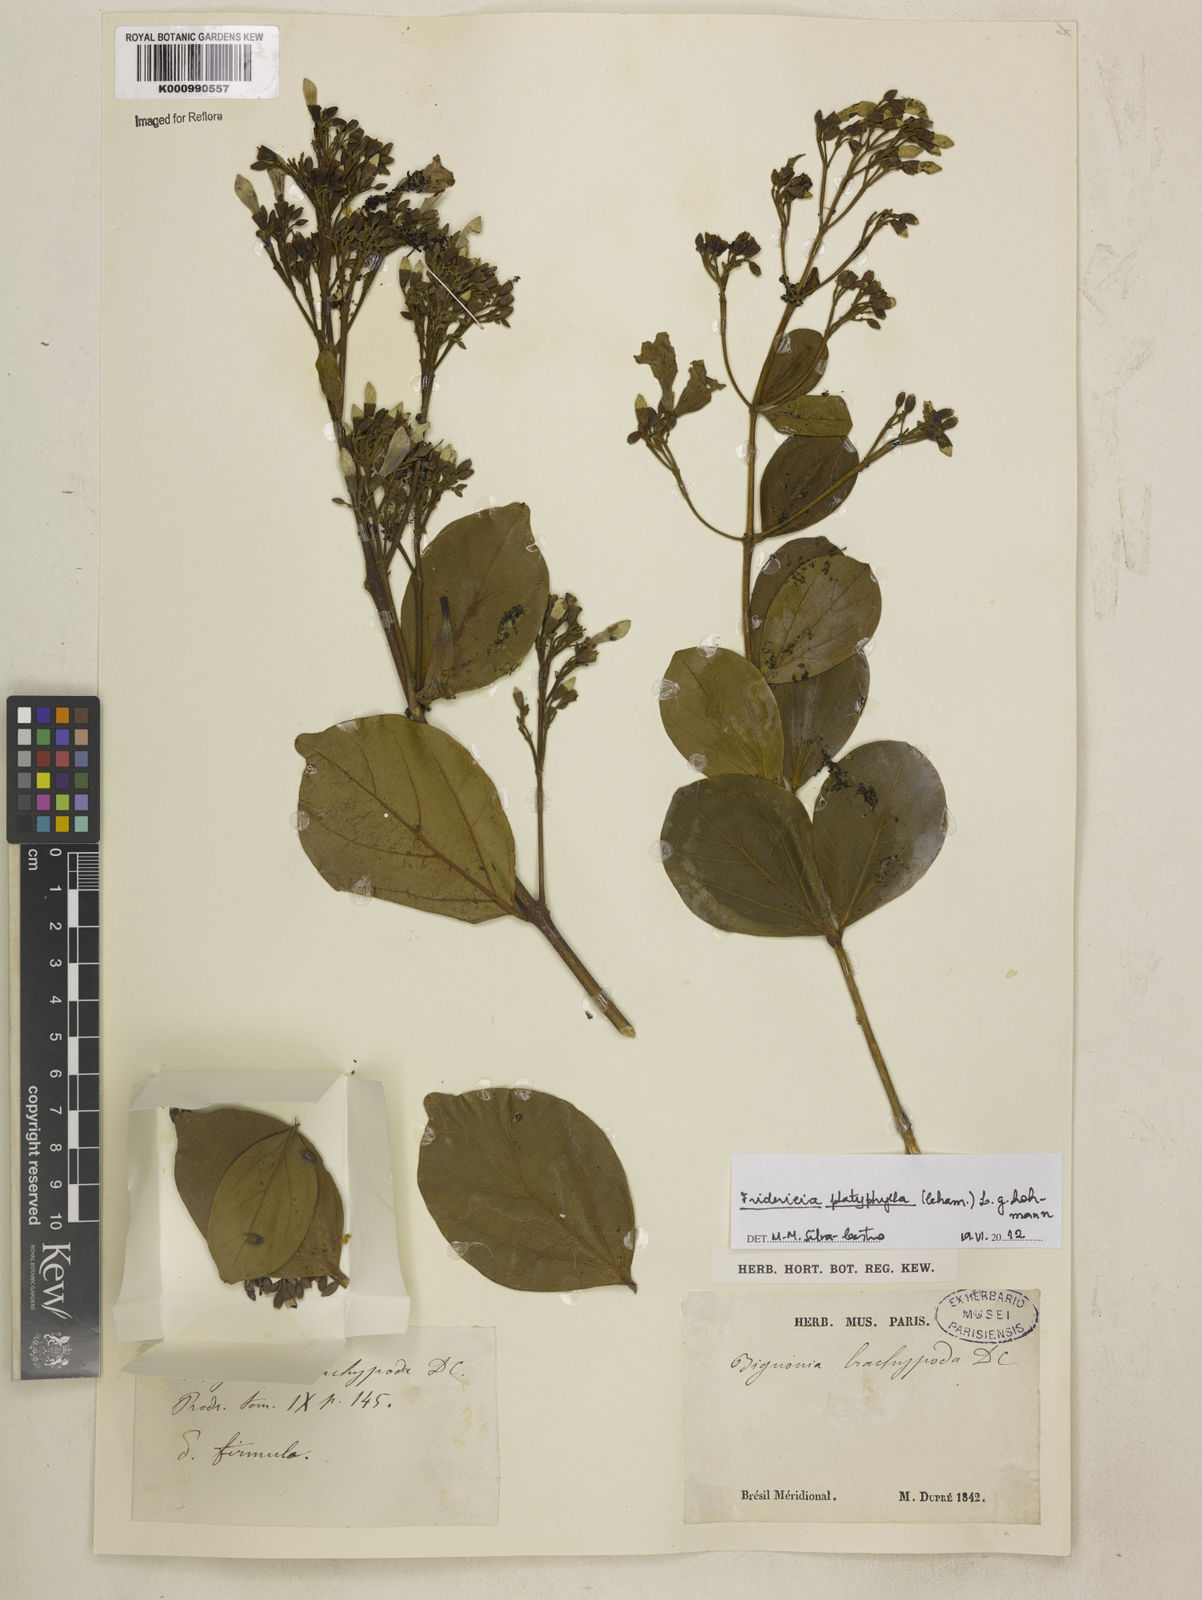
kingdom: Plantae
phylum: Tracheophyta
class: Magnoliopsida
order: Lamiales
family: Bignoniaceae
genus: Fridericia
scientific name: Fridericia platyphylla
